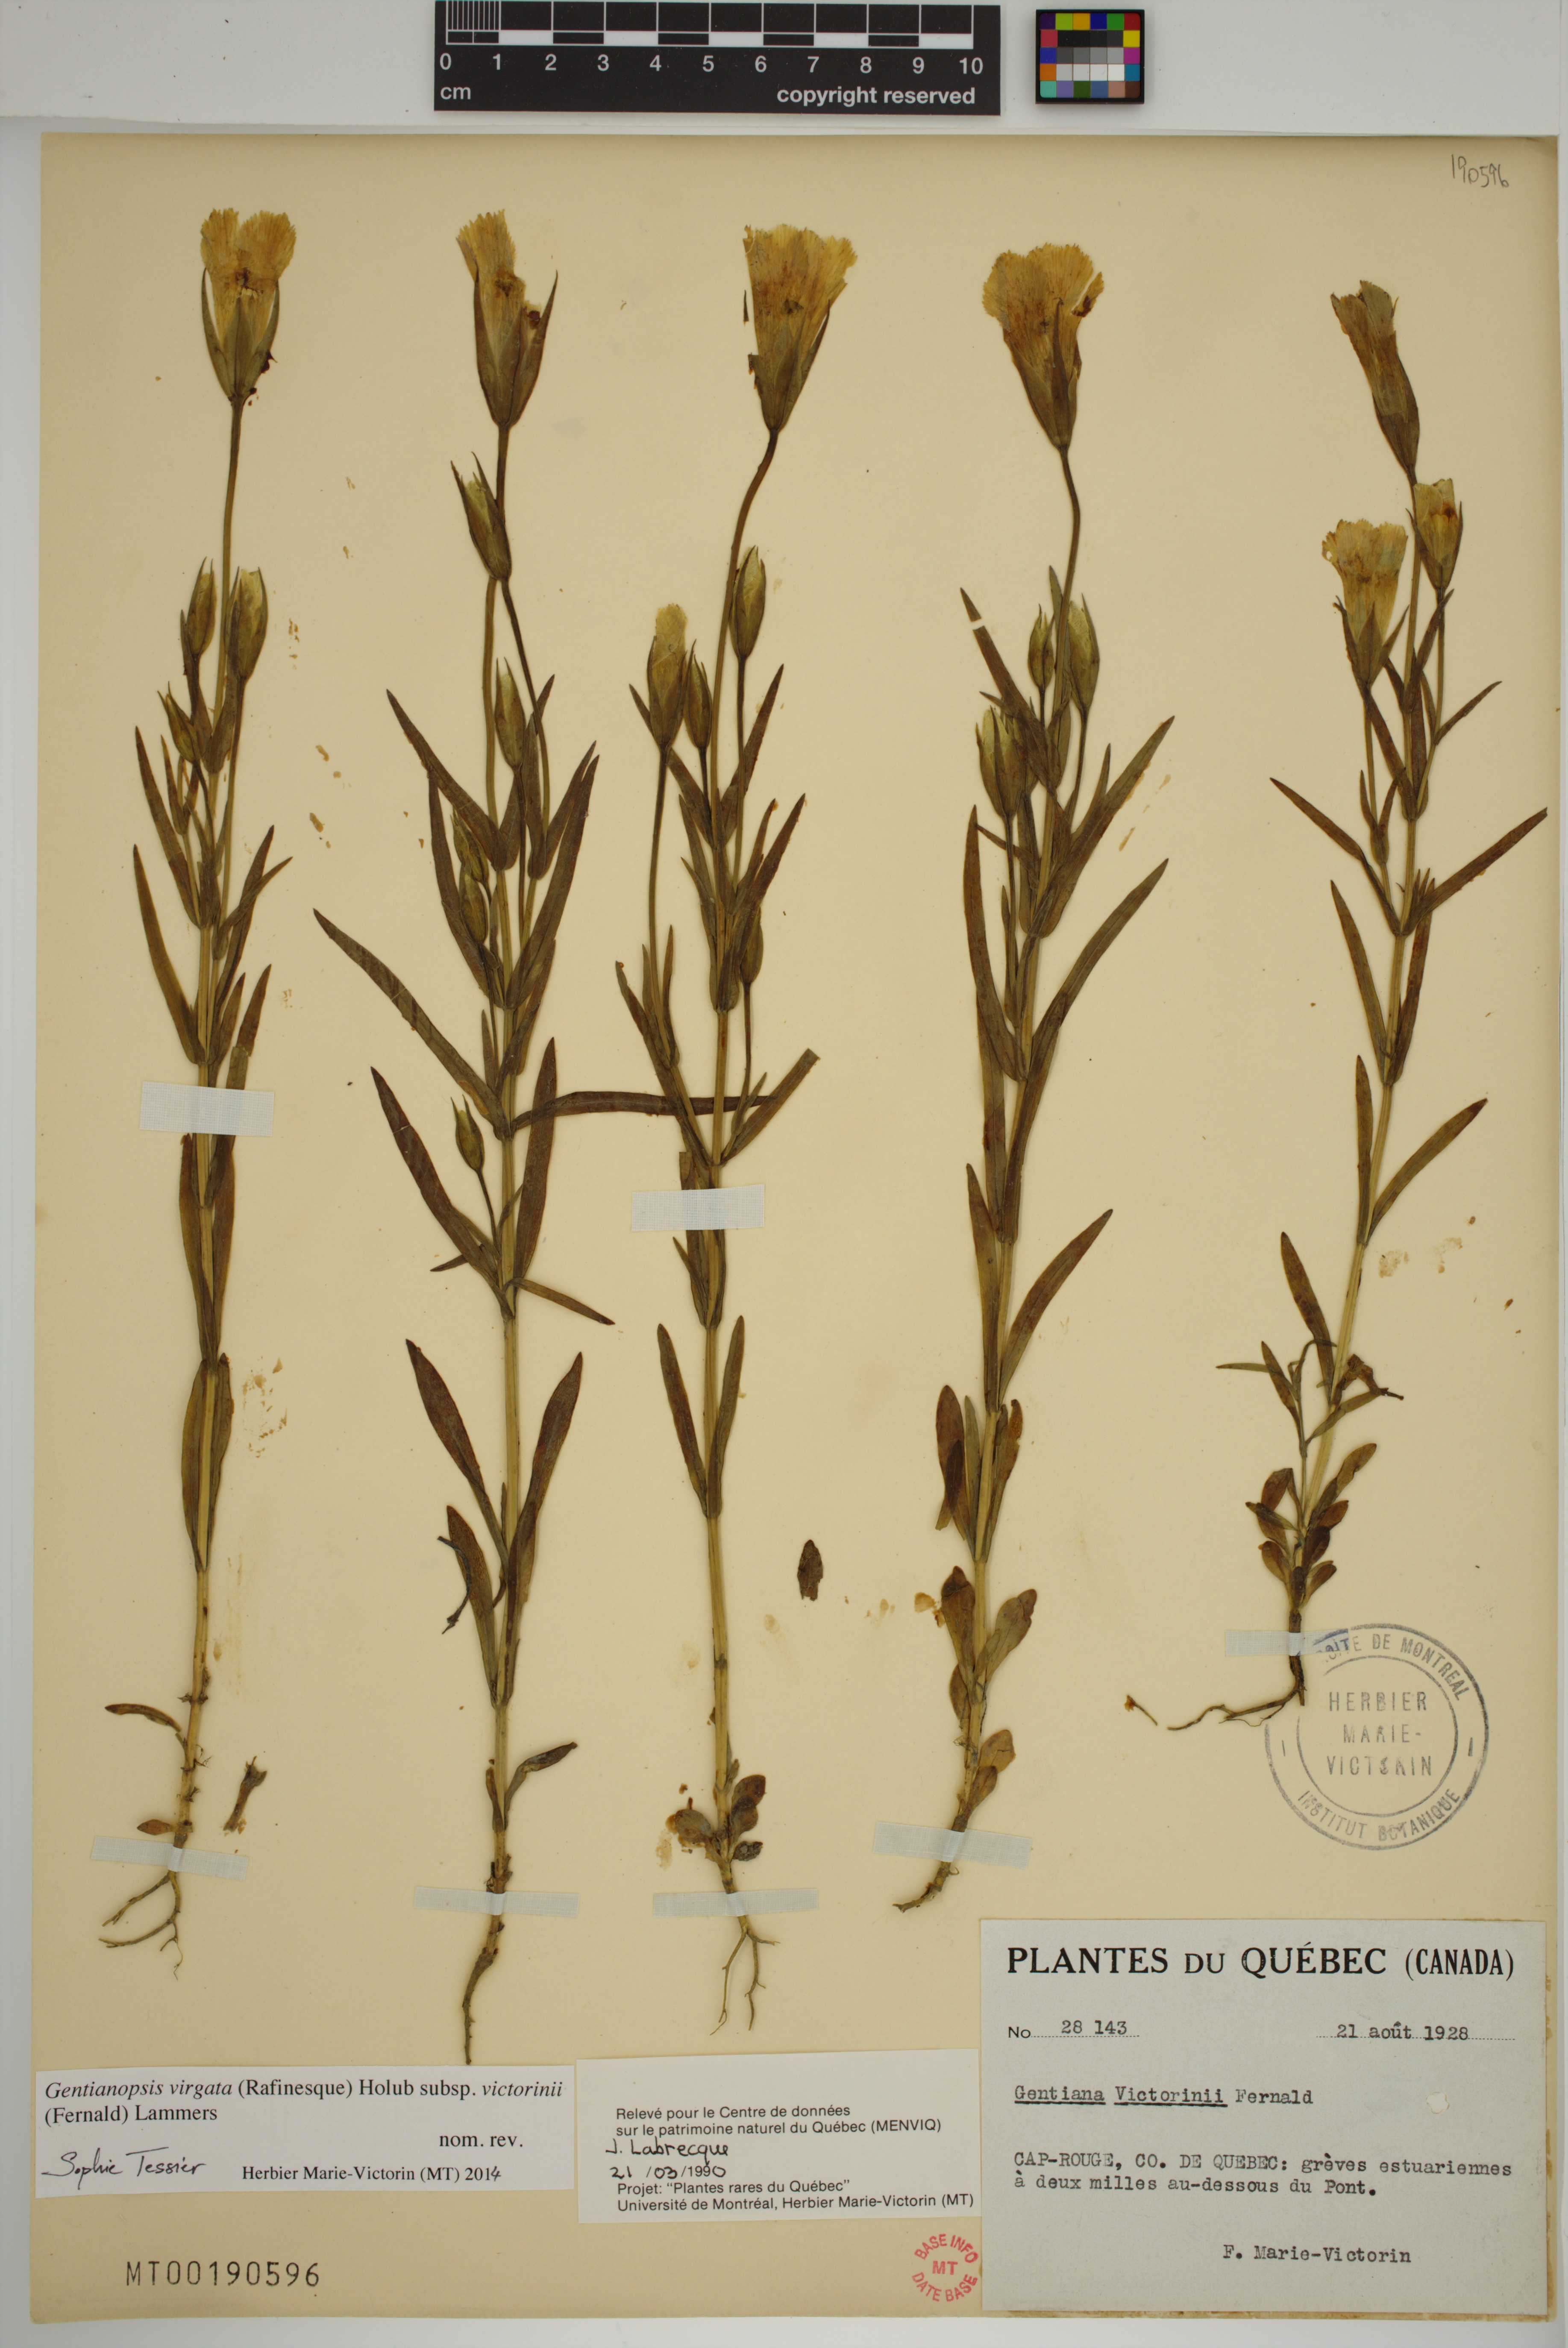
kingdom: Plantae
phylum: Tracheophyta
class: Magnoliopsida
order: Gentianales
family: Gentianaceae
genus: Gentianopsis
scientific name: Gentianopsis victorinii
